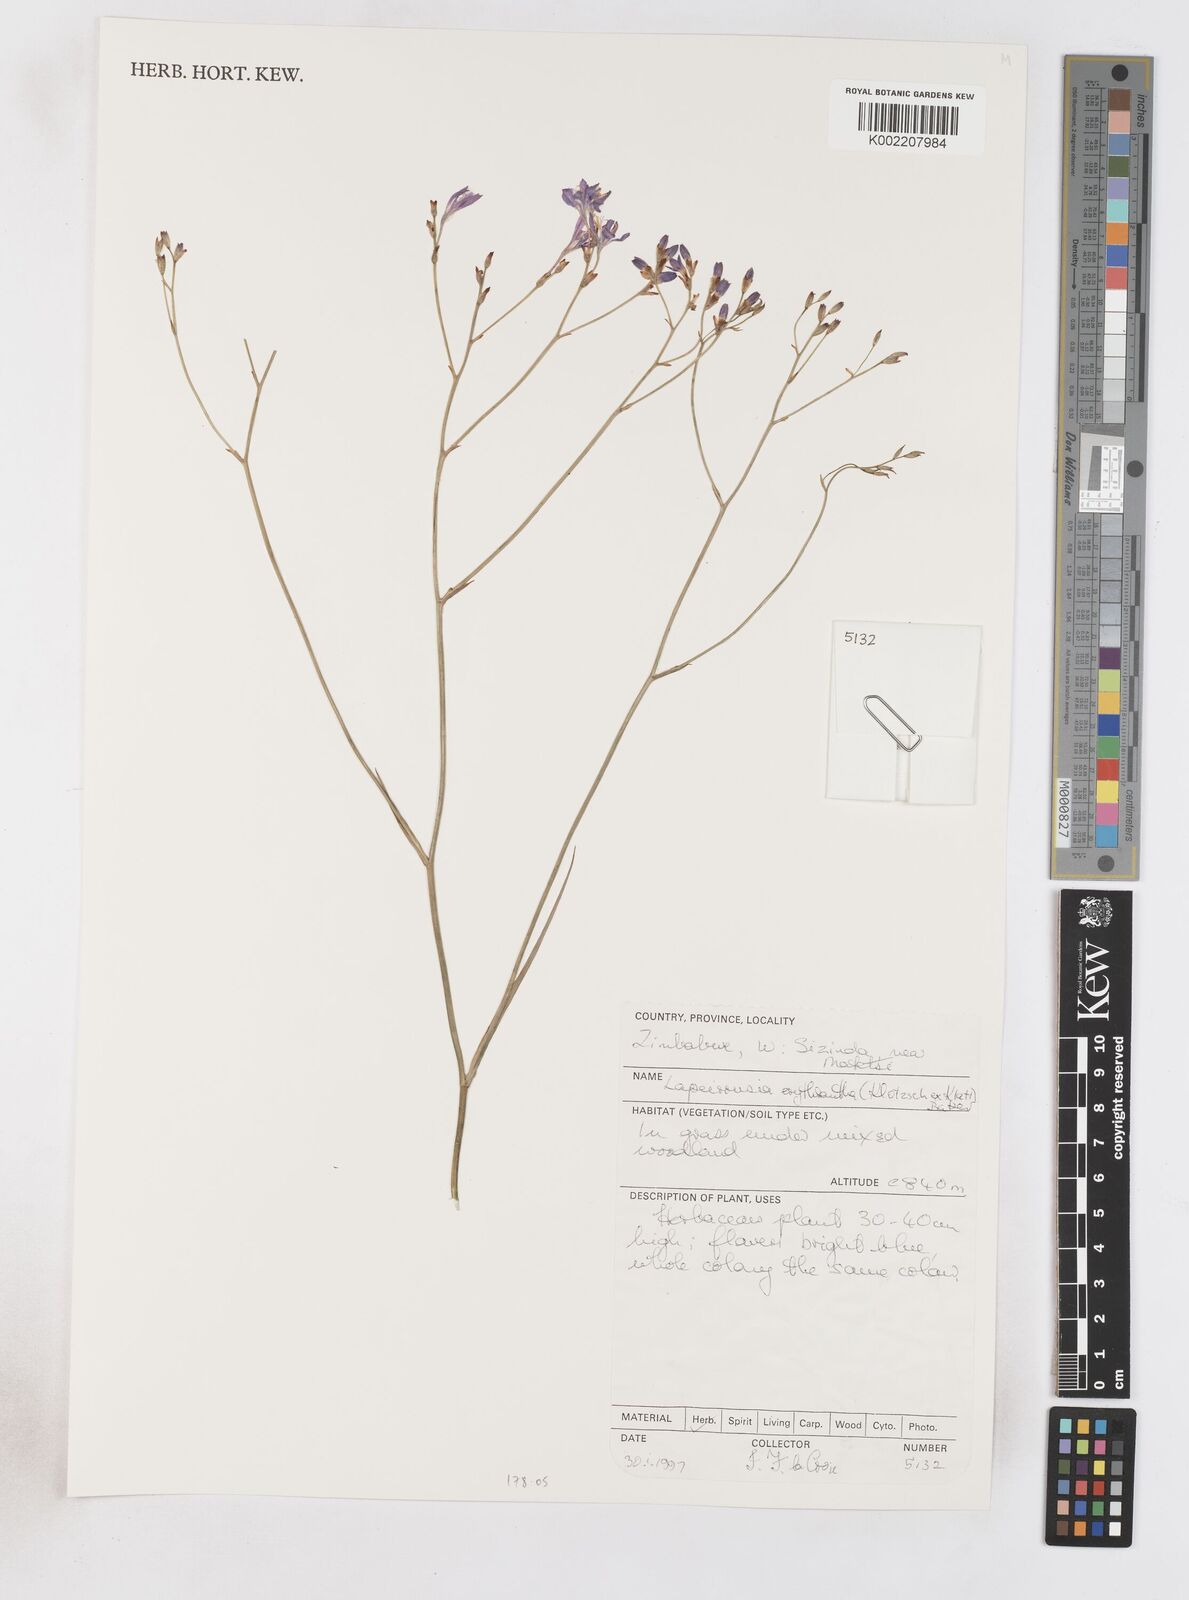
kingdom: Plantae
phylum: Tracheophyta
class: Liliopsida
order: Asparagales
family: Iridaceae
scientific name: Iridaceae
